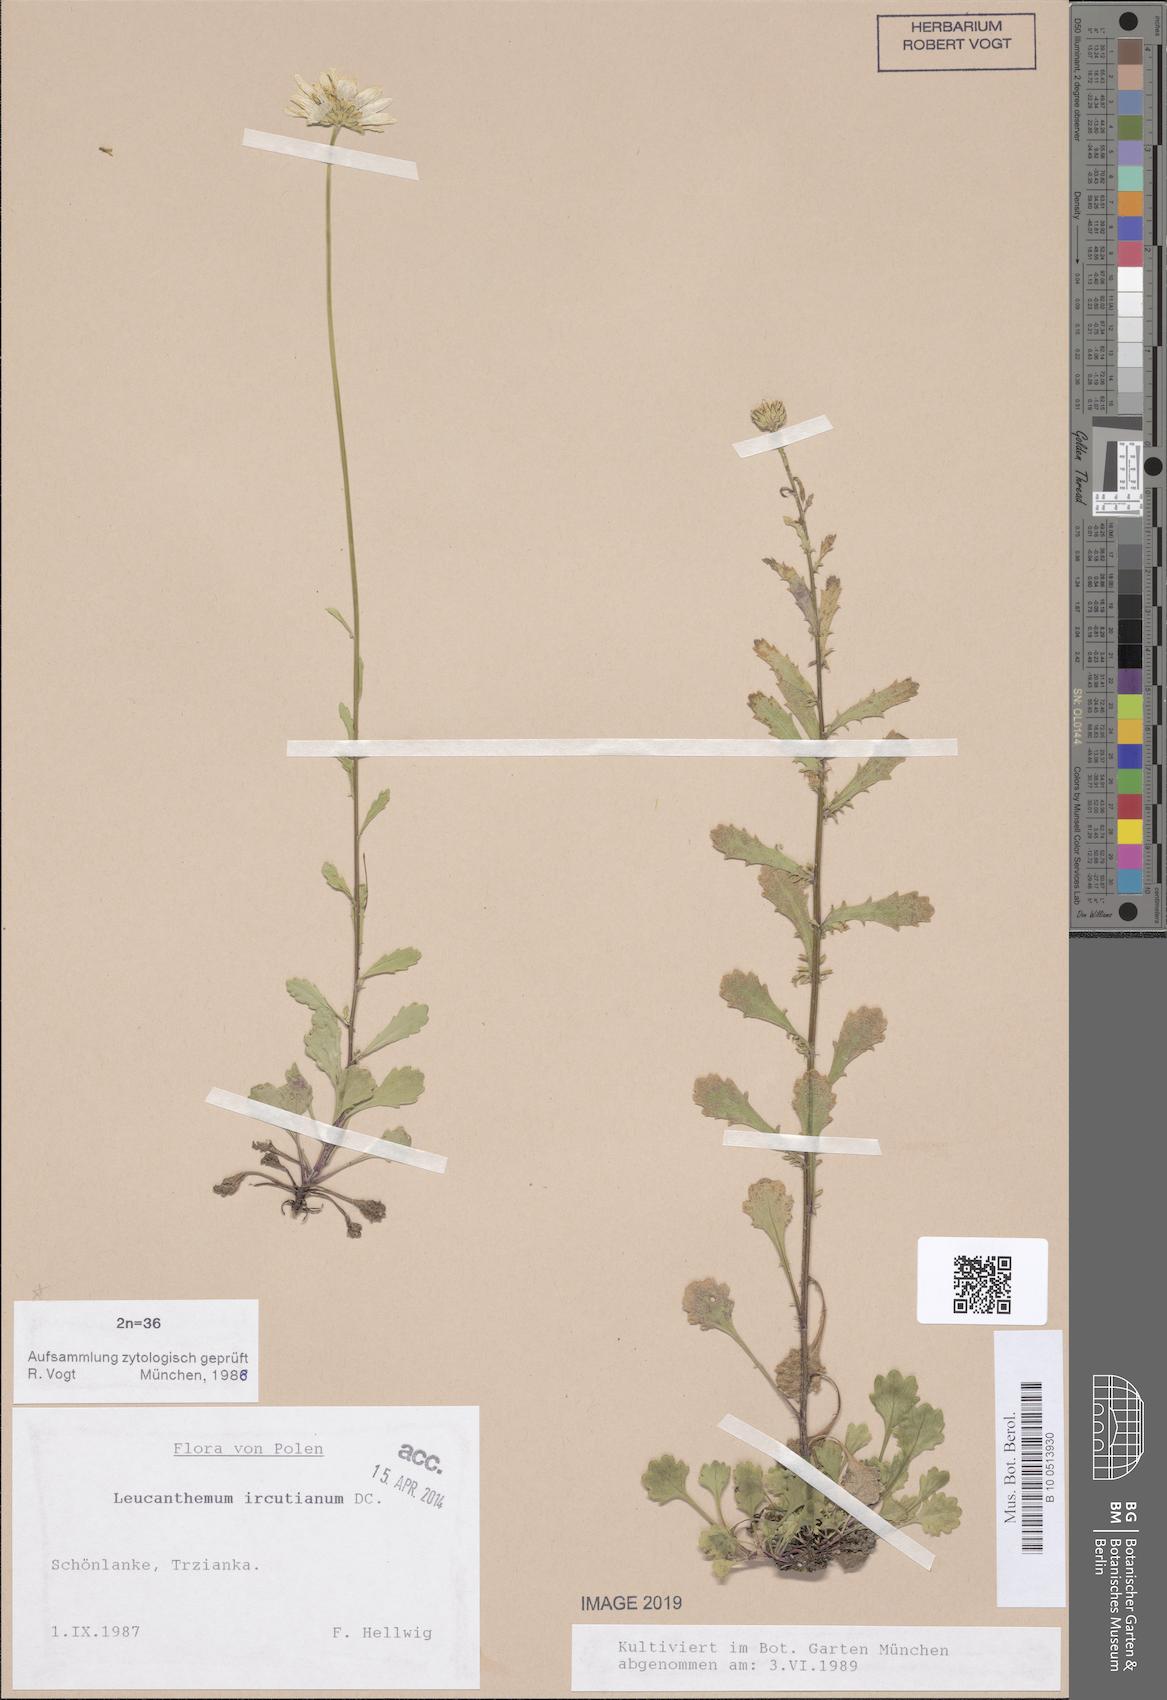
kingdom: Plantae
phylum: Tracheophyta
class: Magnoliopsida
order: Asterales
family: Asteraceae
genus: Leucanthemum
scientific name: Leucanthemum ircutianum
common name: Daisy
